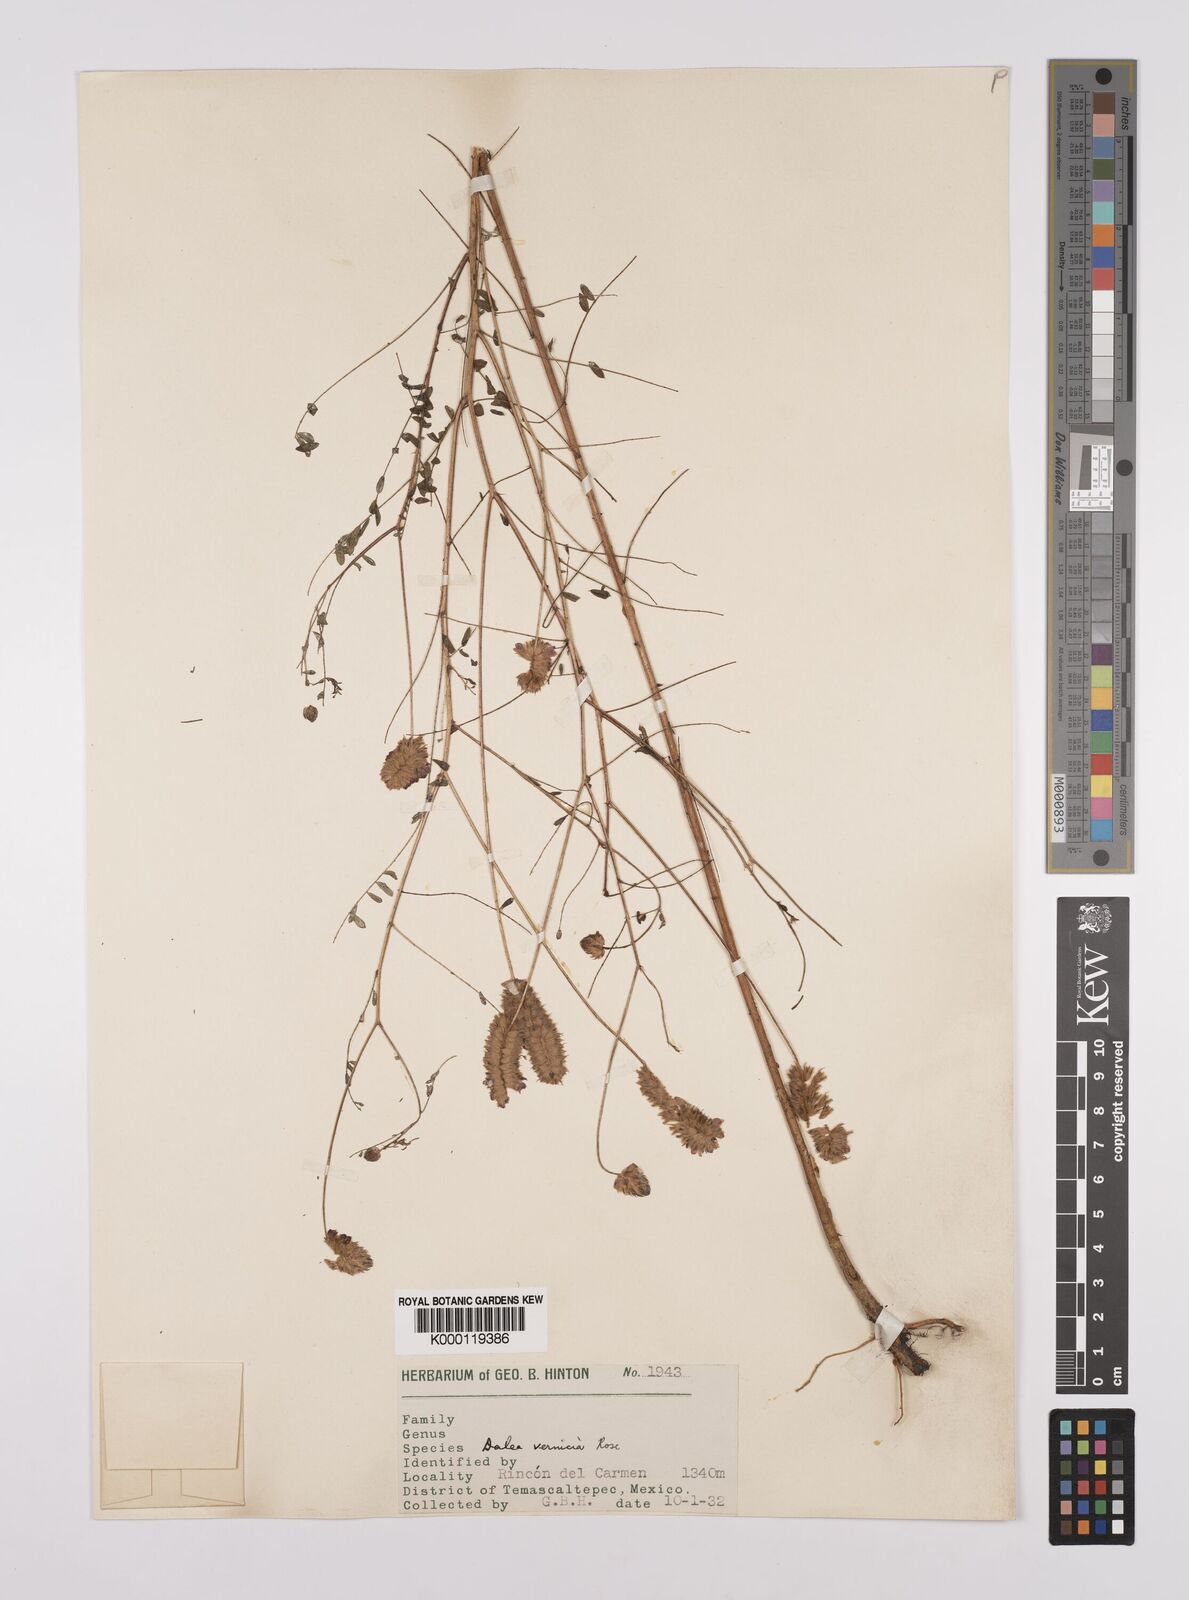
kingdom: Plantae
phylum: Tracheophyta
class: Magnoliopsida
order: Fabales
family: Fabaceae
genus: Dalea
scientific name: Dalea foliolosa
